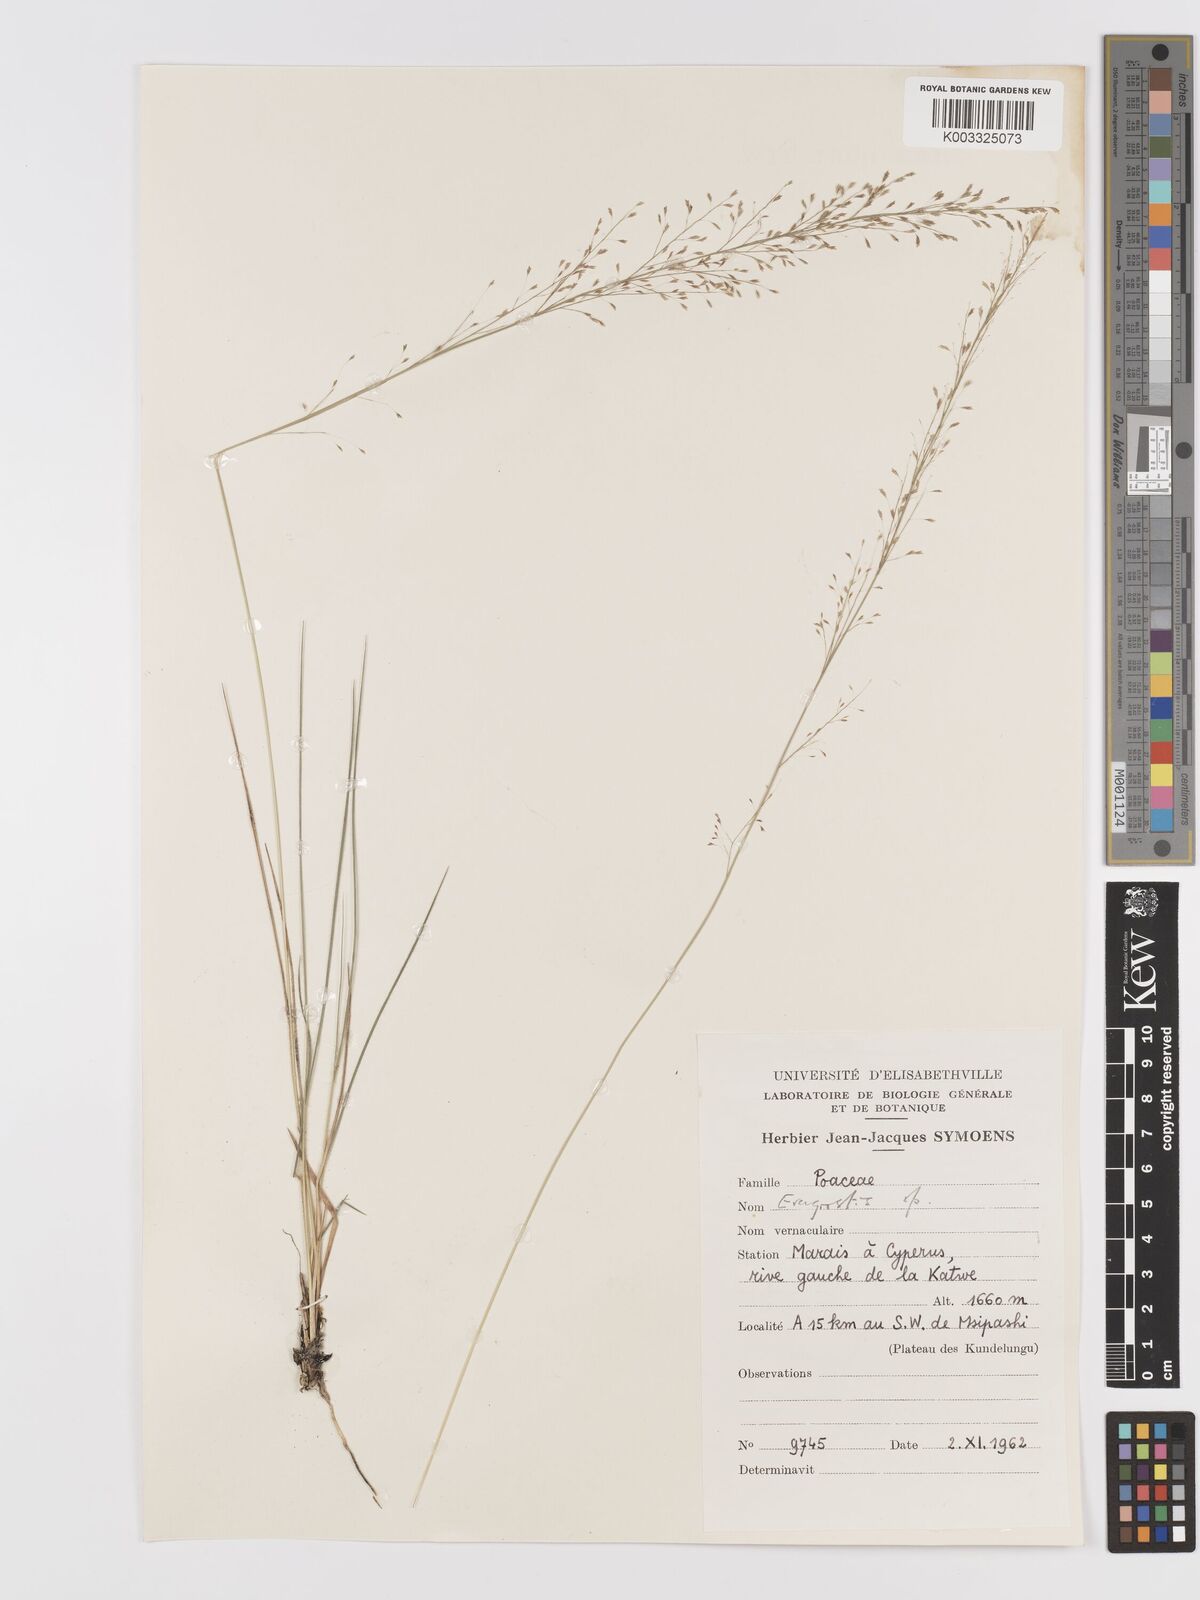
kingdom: Plantae
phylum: Tracheophyta
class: Liliopsida
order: Poales
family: Poaceae
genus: Eragrostis
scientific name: Eragrostis
